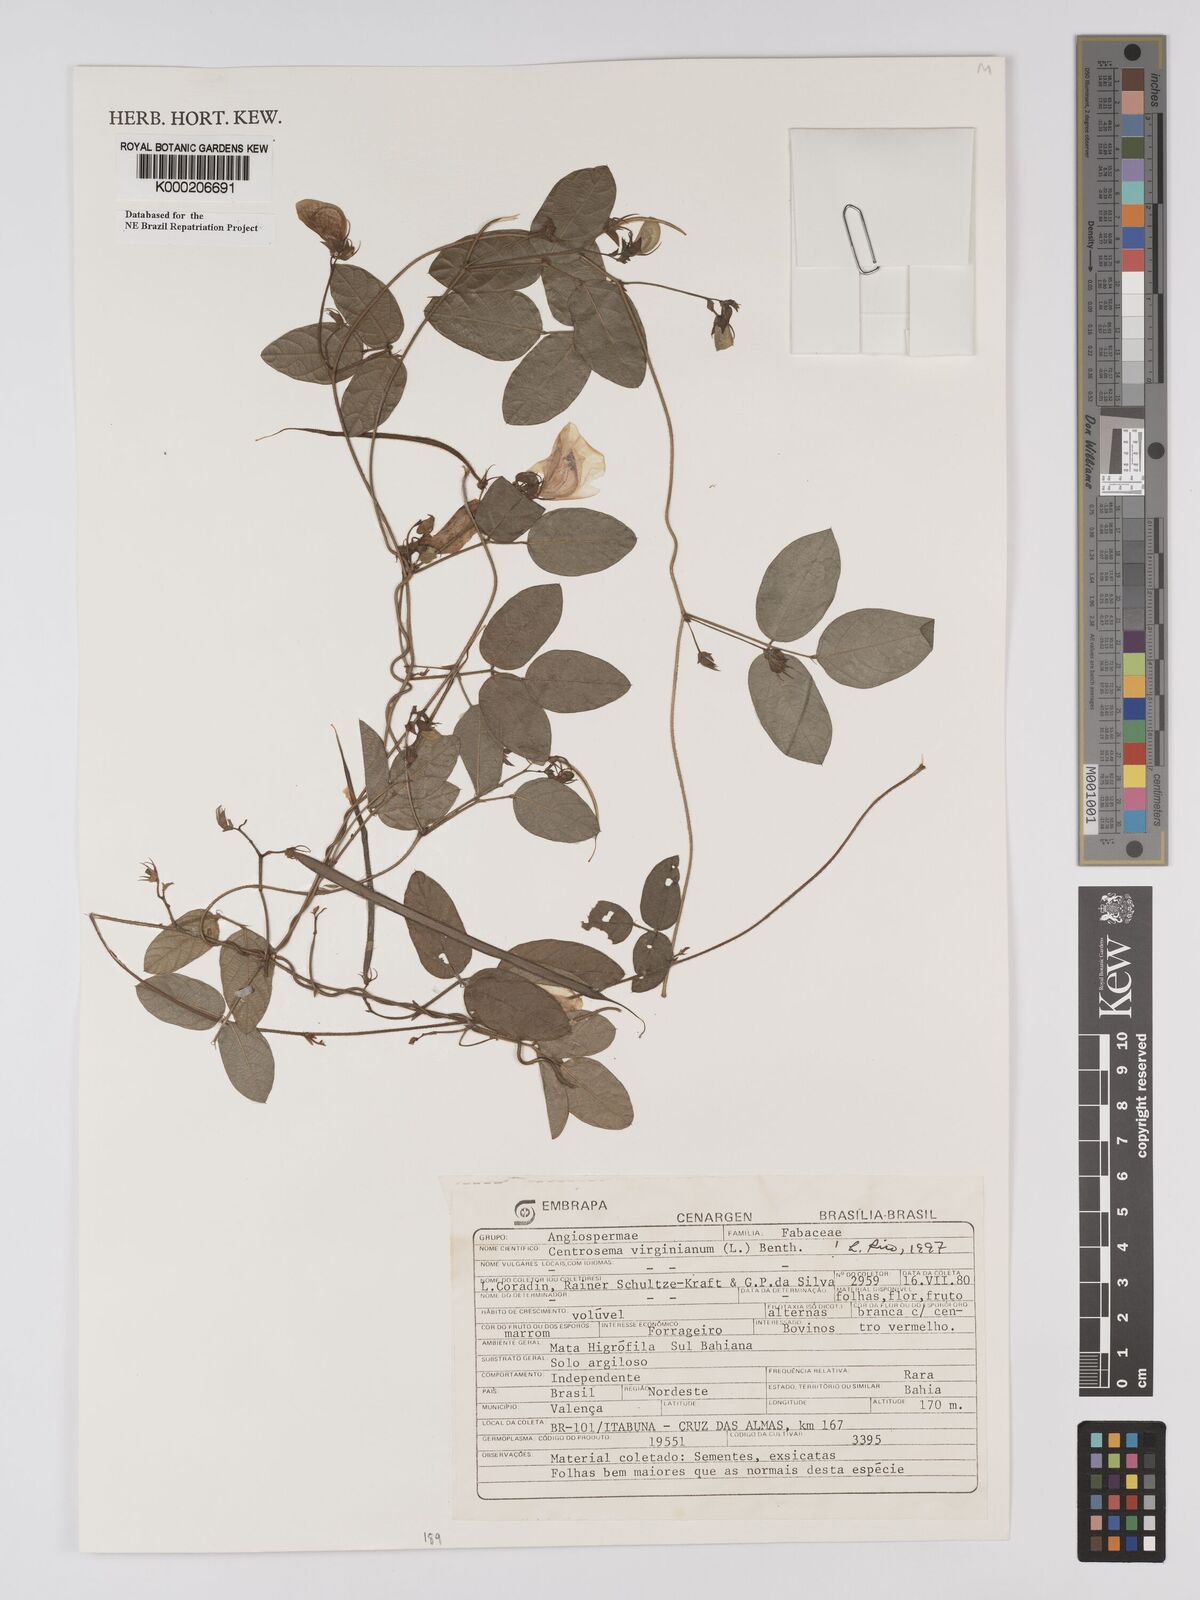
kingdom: Plantae
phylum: Tracheophyta
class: Magnoliopsida
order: Fabales
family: Fabaceae
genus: Centrosema
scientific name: Centrosema virginianum
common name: Butterfly-pea
